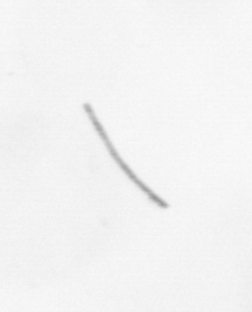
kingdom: Chromista
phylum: Ochrophyta
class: Bacillariophyceae
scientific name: Bacillariophyceae
